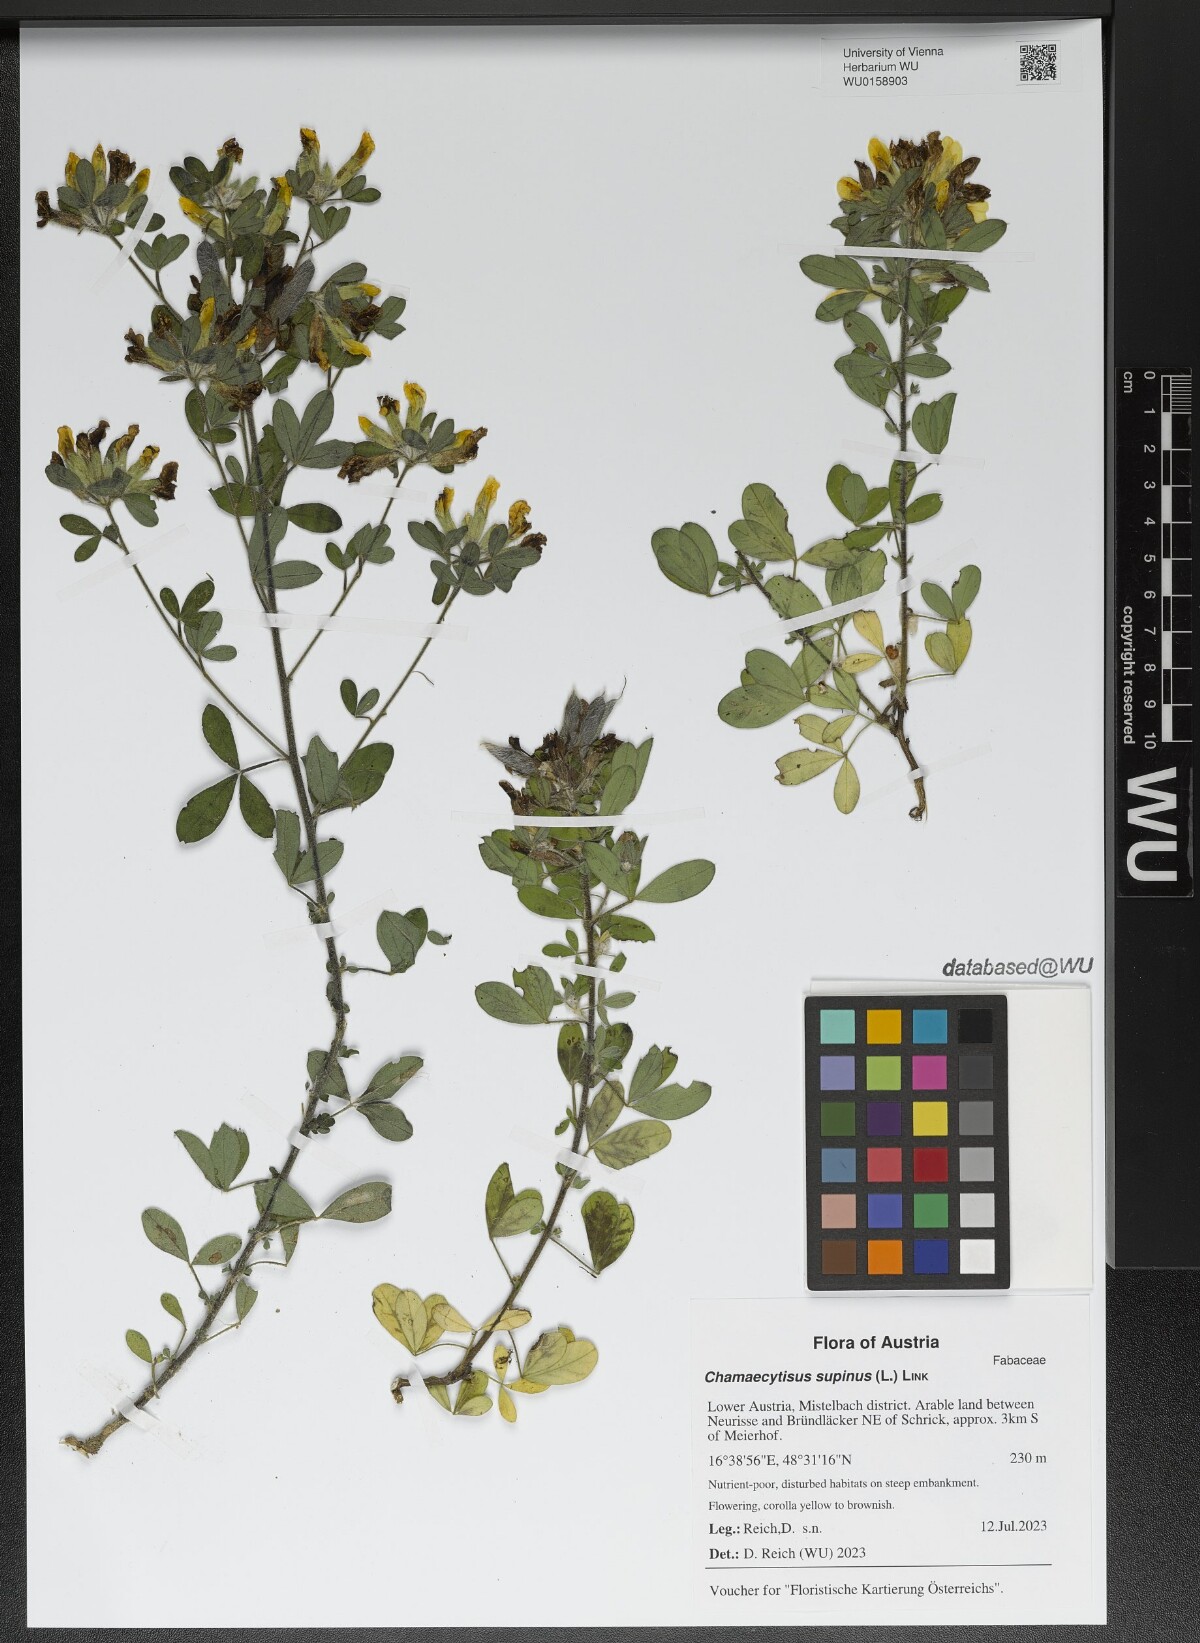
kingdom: Plantae
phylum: Tracheophyta
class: Magnoliopsida
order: Fabales
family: Fabaceae
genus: Chamaecytisus
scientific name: Chamaecytisus supinus
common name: Clustered broom
